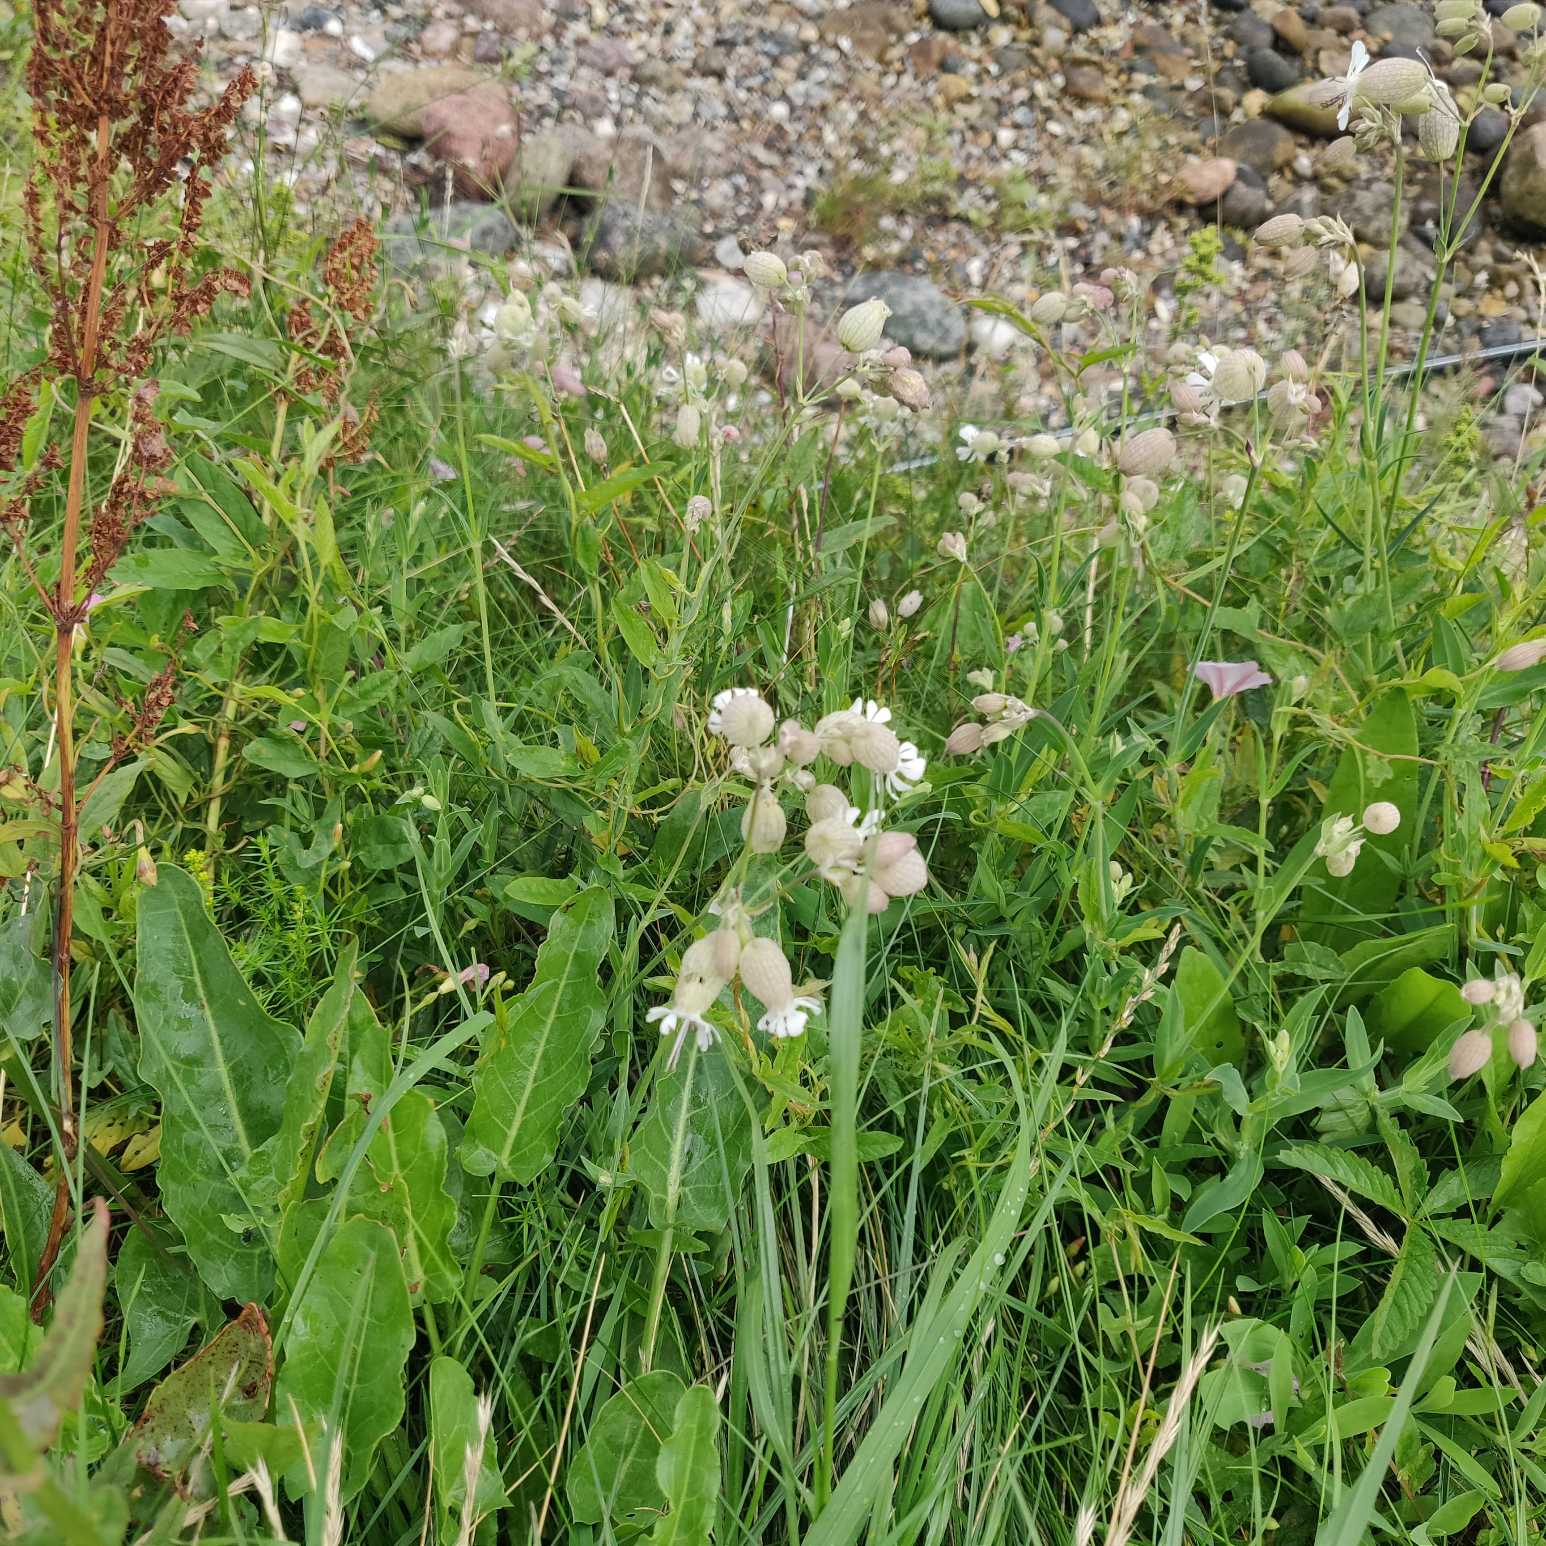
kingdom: Plantae
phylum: Tracheophyta
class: Magnoliopsida
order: Caryophyllales
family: Caryophyllaceae
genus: Silene
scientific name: Silene vulgaris
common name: Blæresmælde
